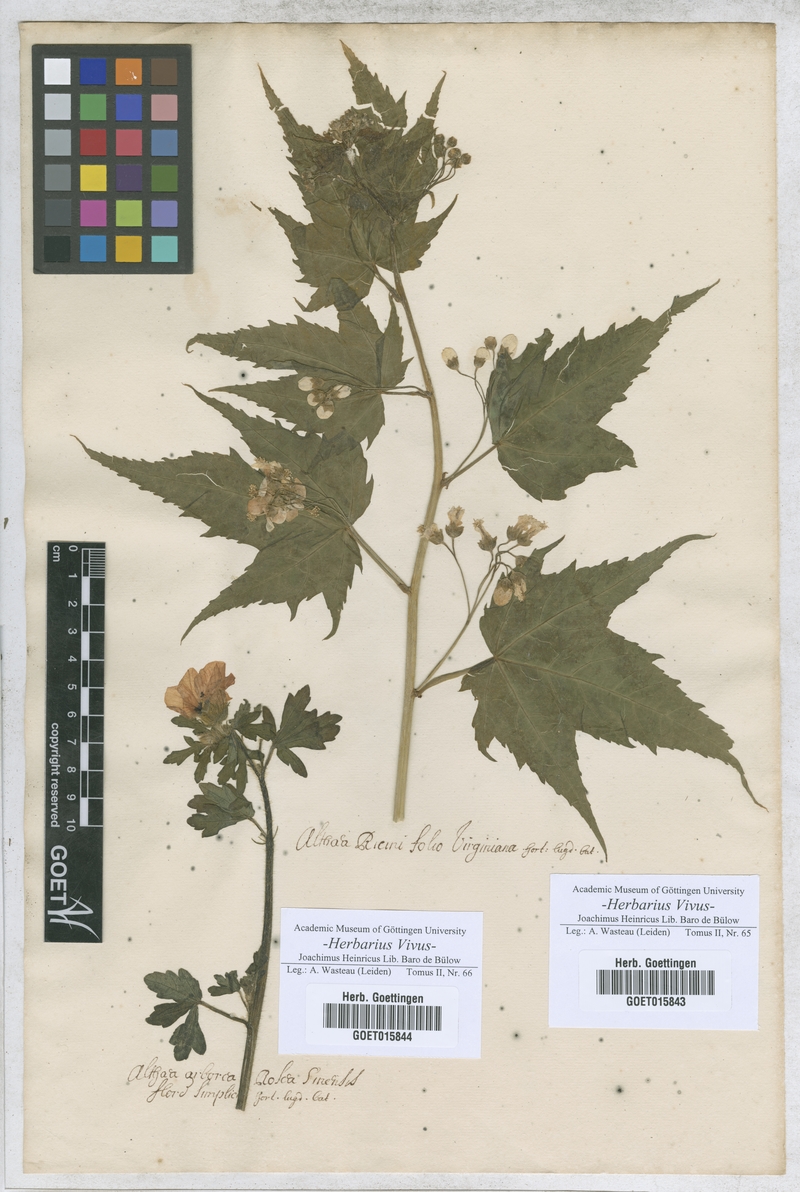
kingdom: Plantae
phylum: Tracheophyta
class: Magnoliopsida
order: Malvales
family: Malvaceae
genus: Althaea
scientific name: Althaea
